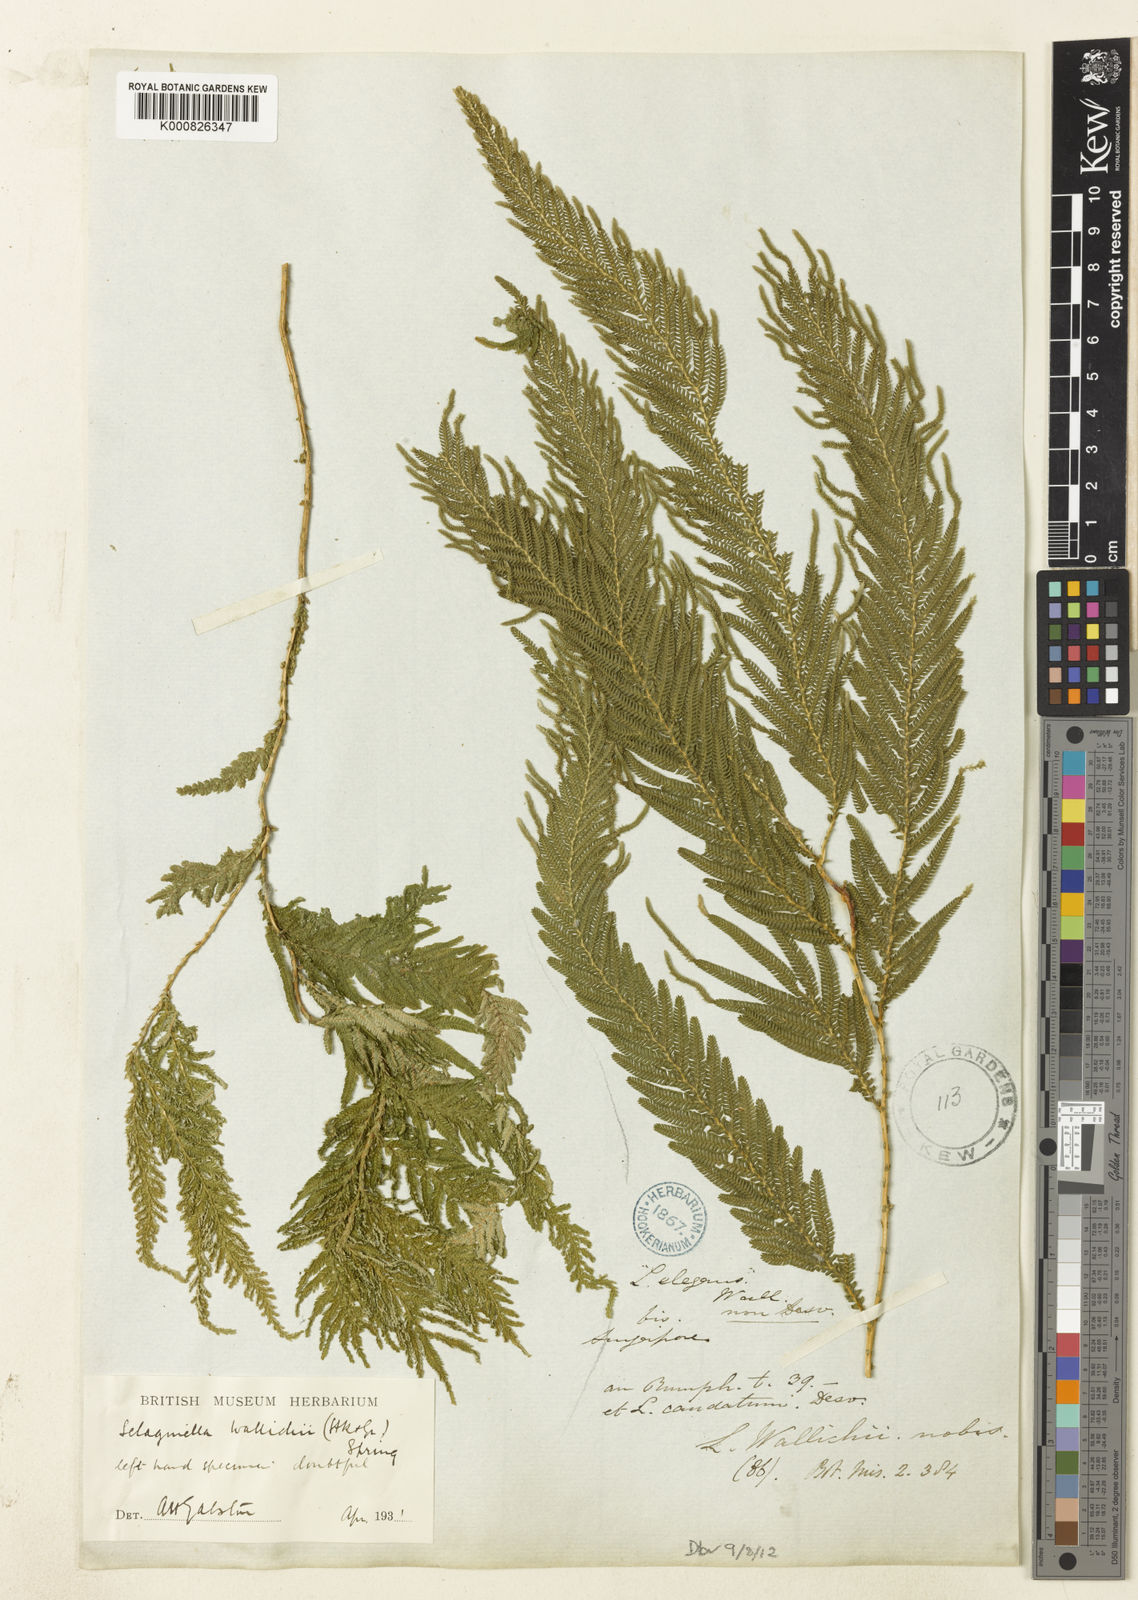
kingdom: Plantae
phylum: Tracheophyta
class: Lycopodiopsida
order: Selaginellales
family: Selaginellaceae
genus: Selaginella
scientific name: Selaginella wallichii
